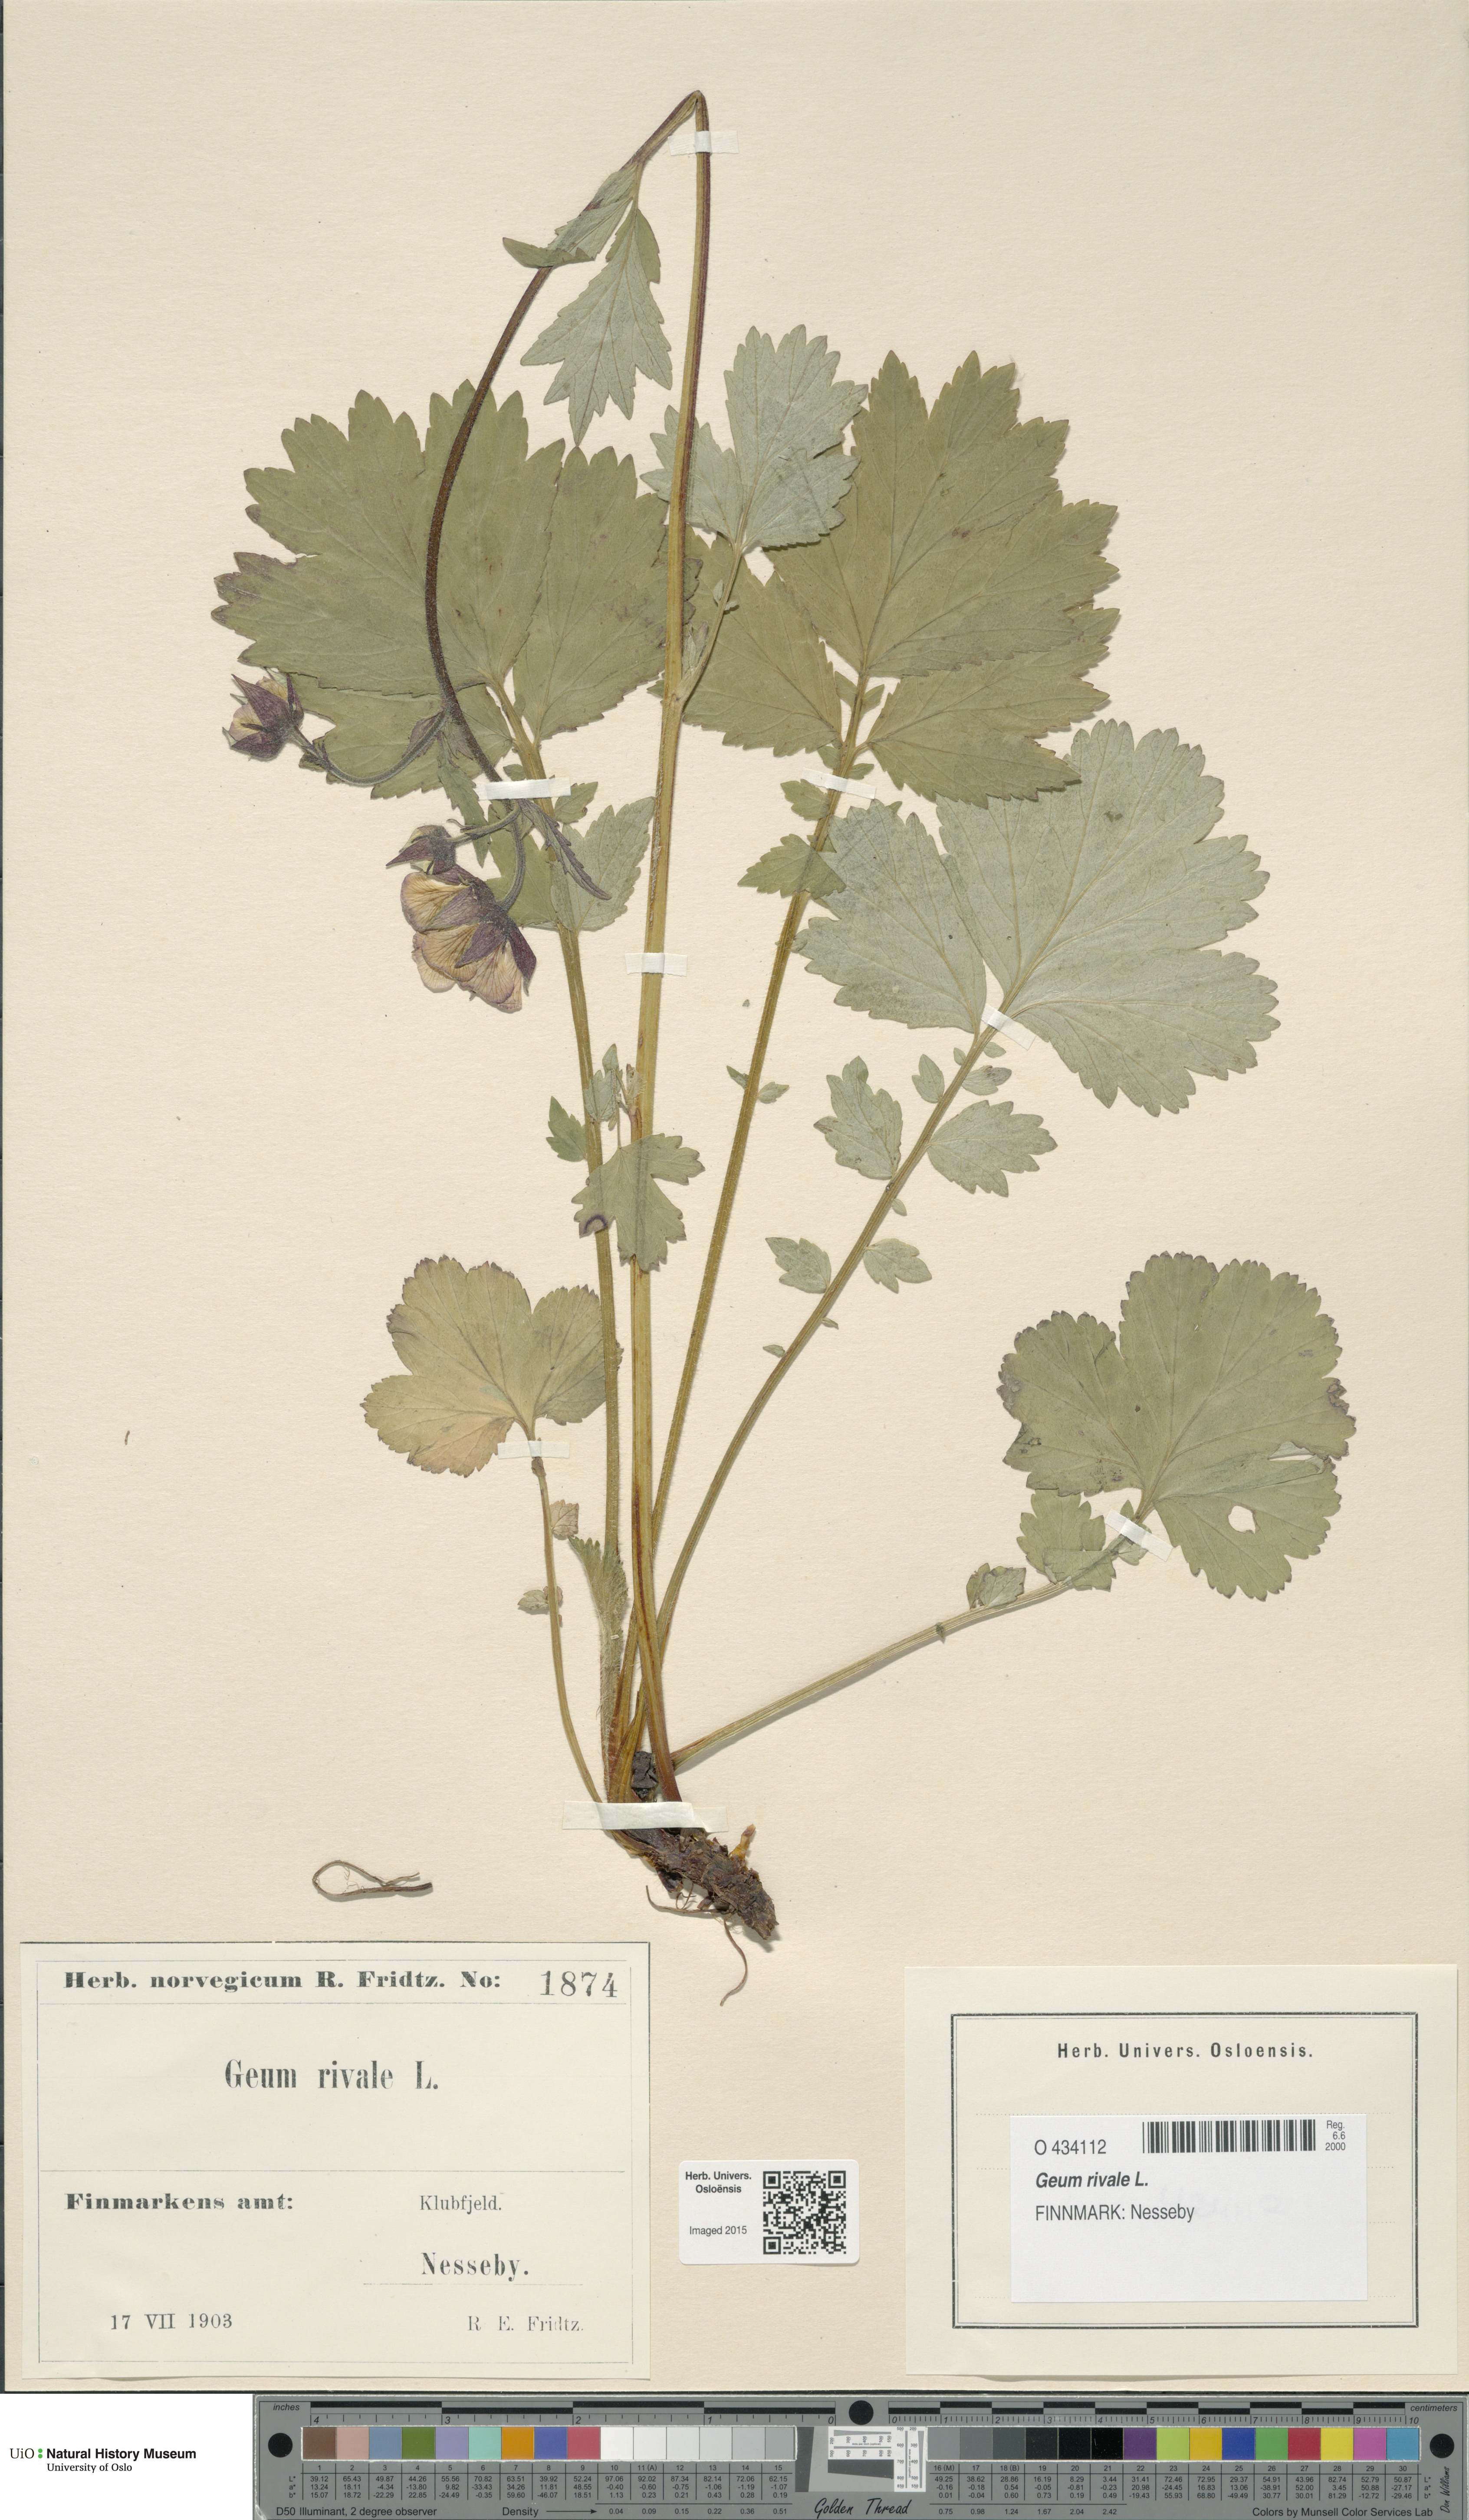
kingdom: Plantae
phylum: Tracheophyta
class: Magnoliopsida
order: Rosales
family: Rosaceae
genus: Geum
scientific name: Geum rivale
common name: Water avens
